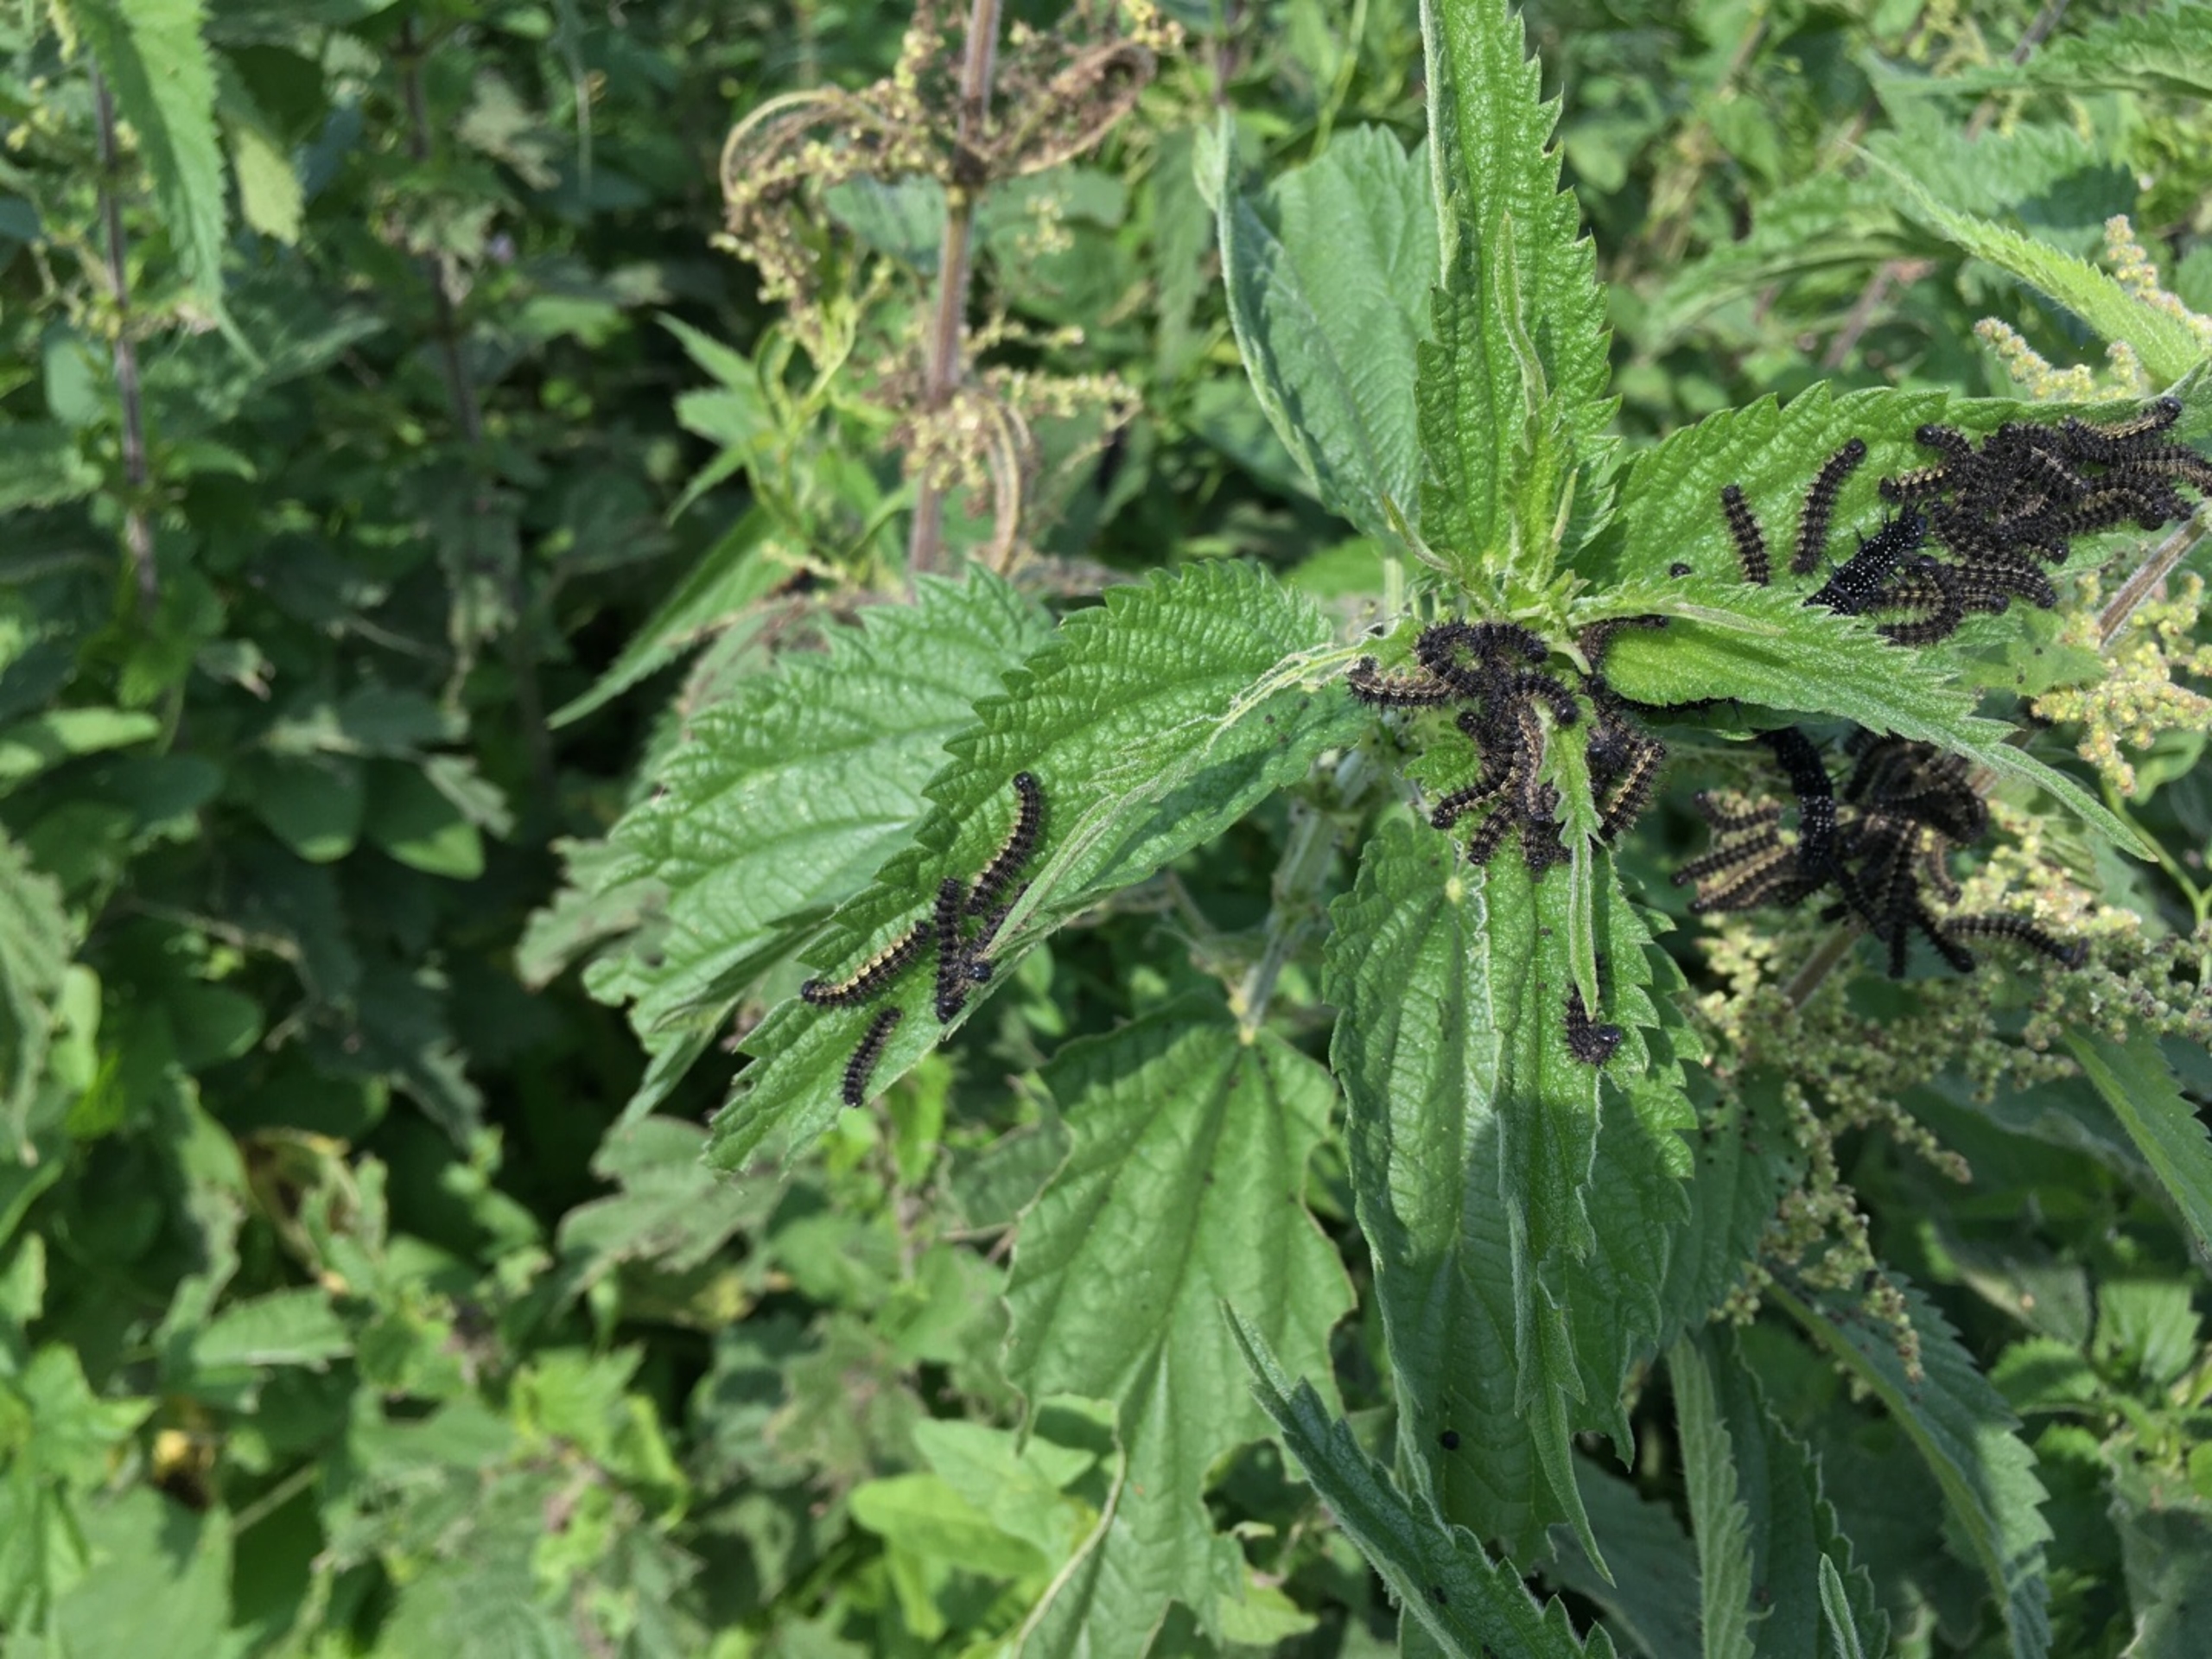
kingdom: Animalia
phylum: Arthropoda
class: Insecta
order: Lepidoptera
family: Nymphalidae
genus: Aglais
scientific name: Aglais urticae
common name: Nældens takvinge
